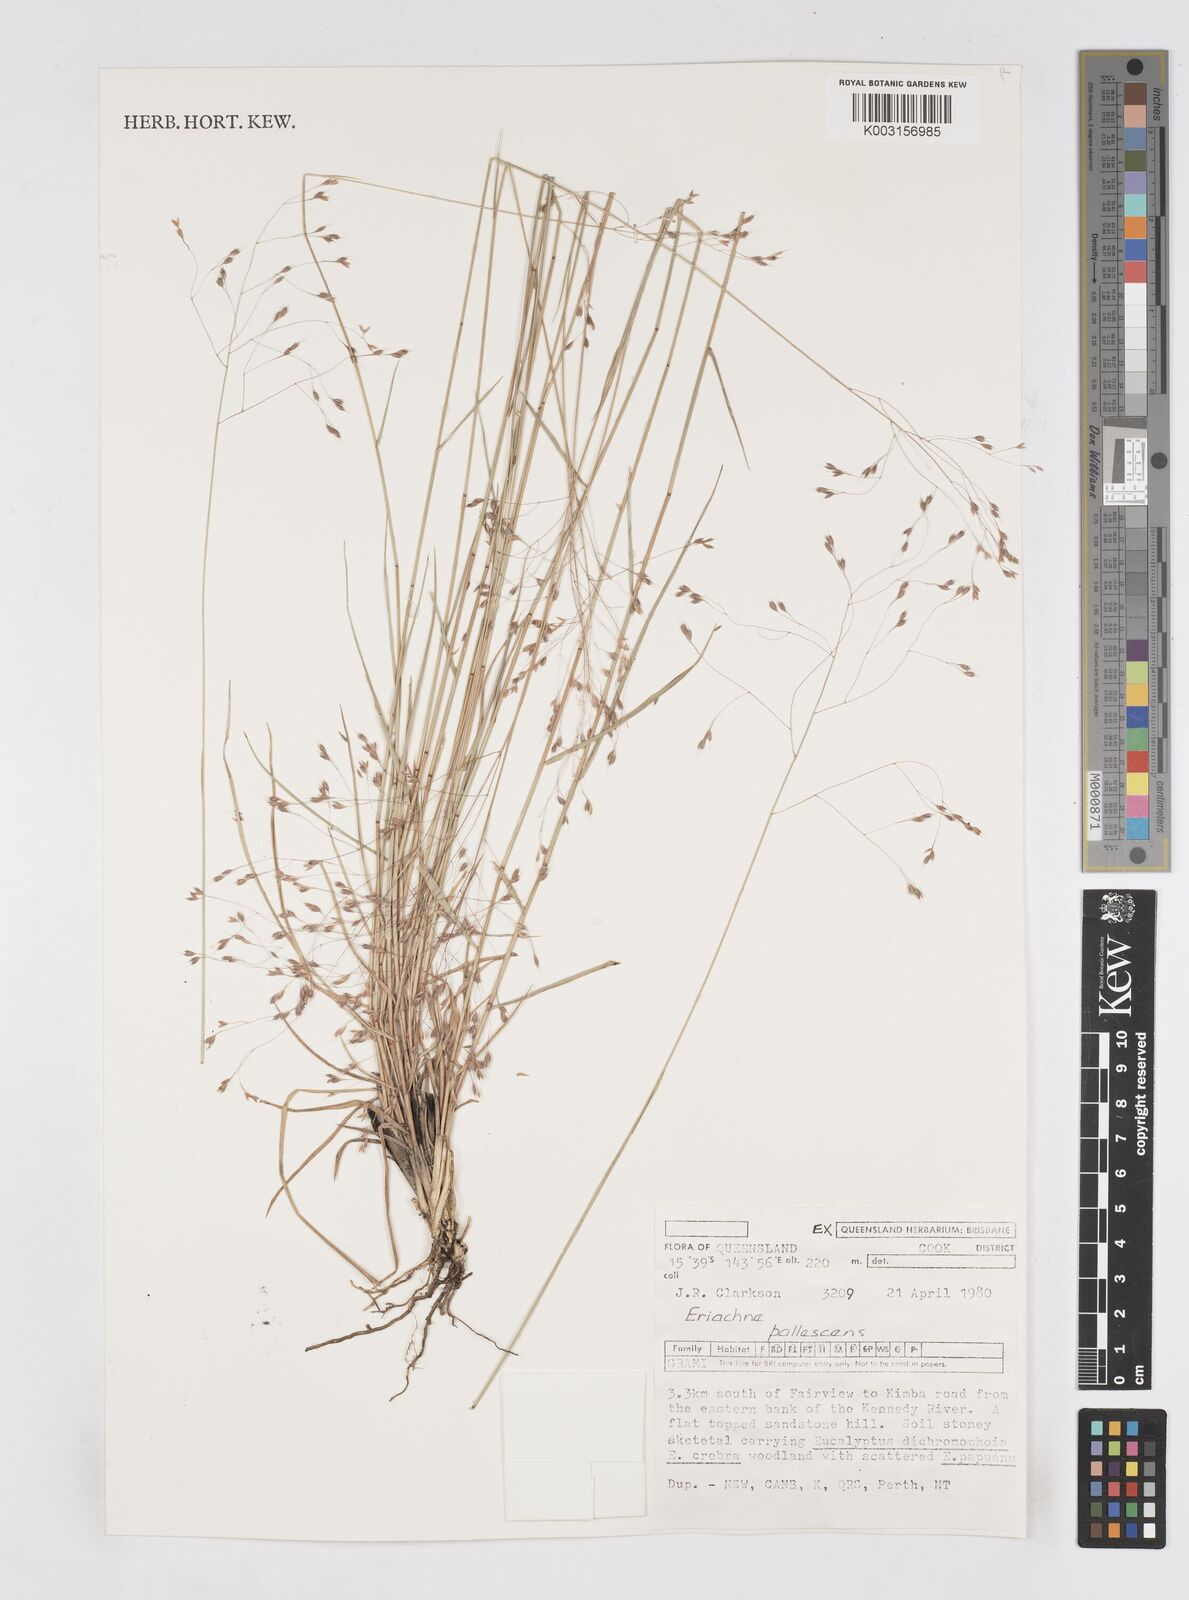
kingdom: Plantae
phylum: Tracheophyta
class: Liliopsida
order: Poales
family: Poaceae
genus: Eriachne
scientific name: Eriachne pallescens
